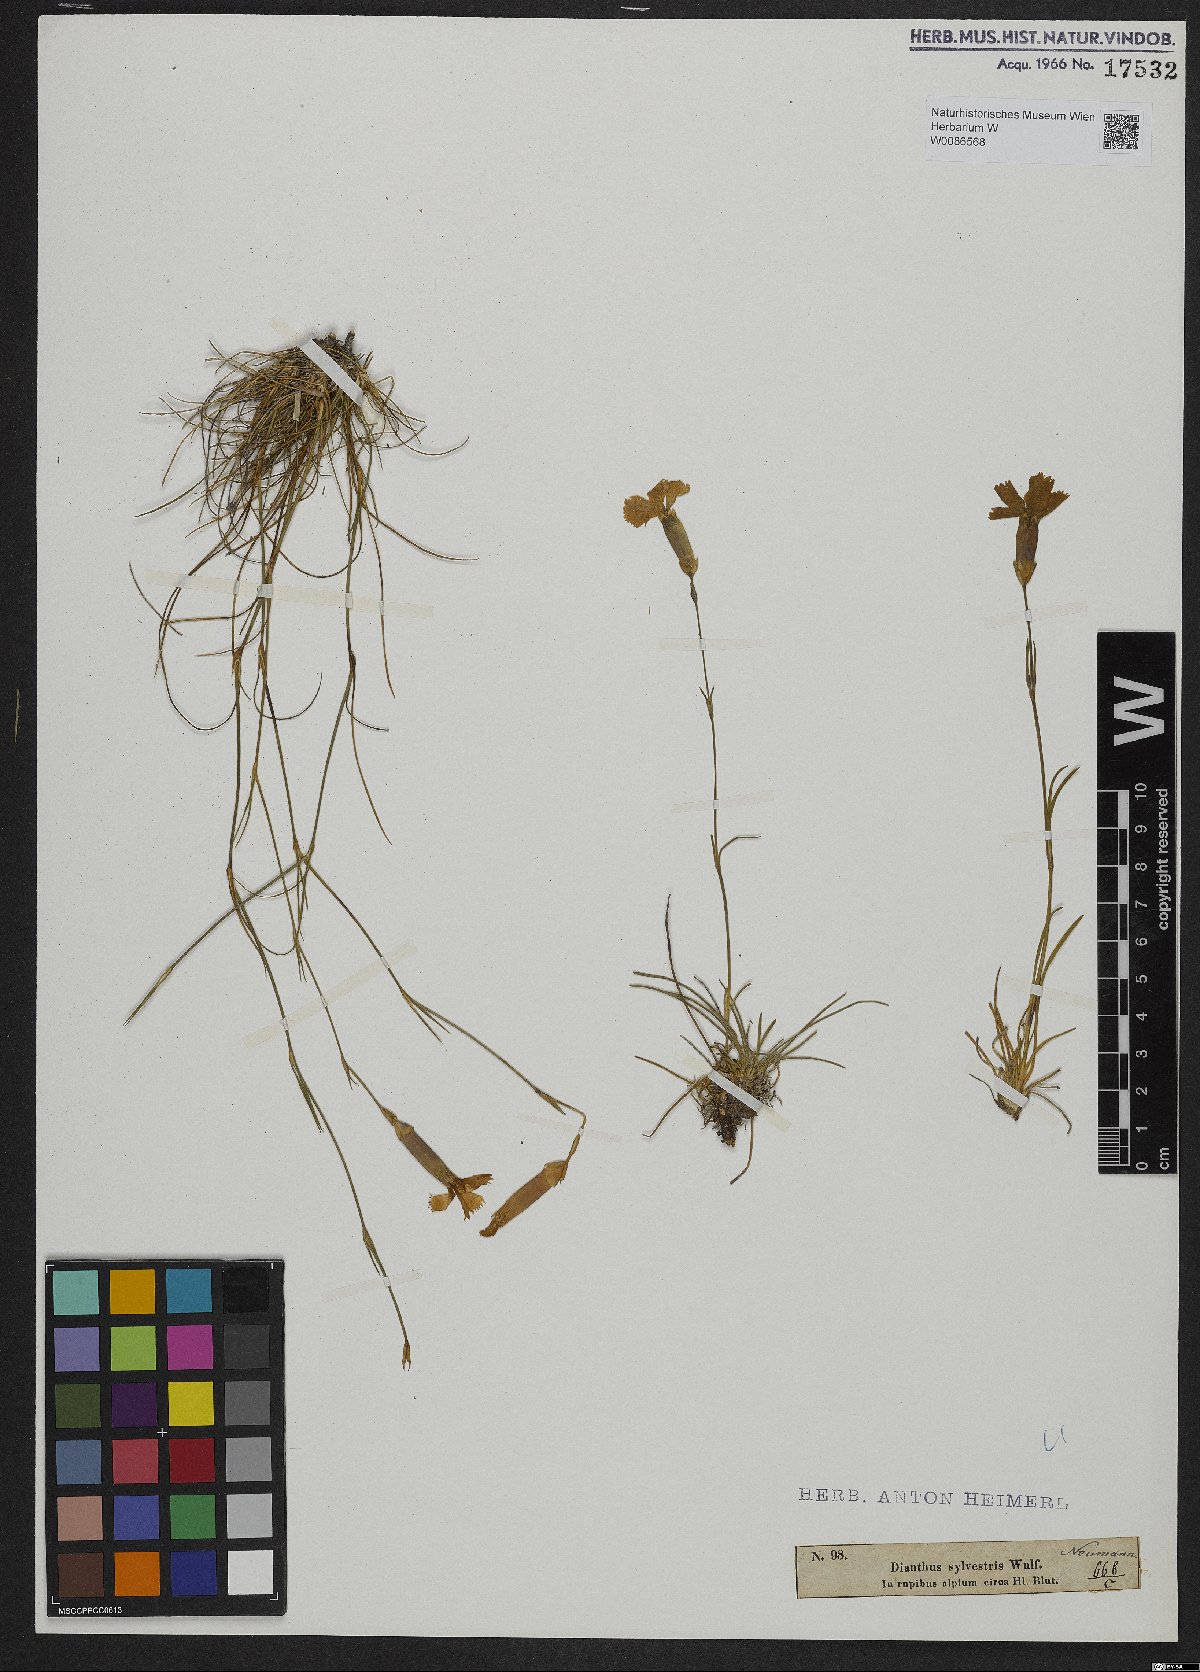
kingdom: Plantae
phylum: Tracheophyta
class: Magnoliopsida
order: Caryophyllales
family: Caryophyllaceae
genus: Dianthus
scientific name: Dianthus sylvestris
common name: Wood pink
